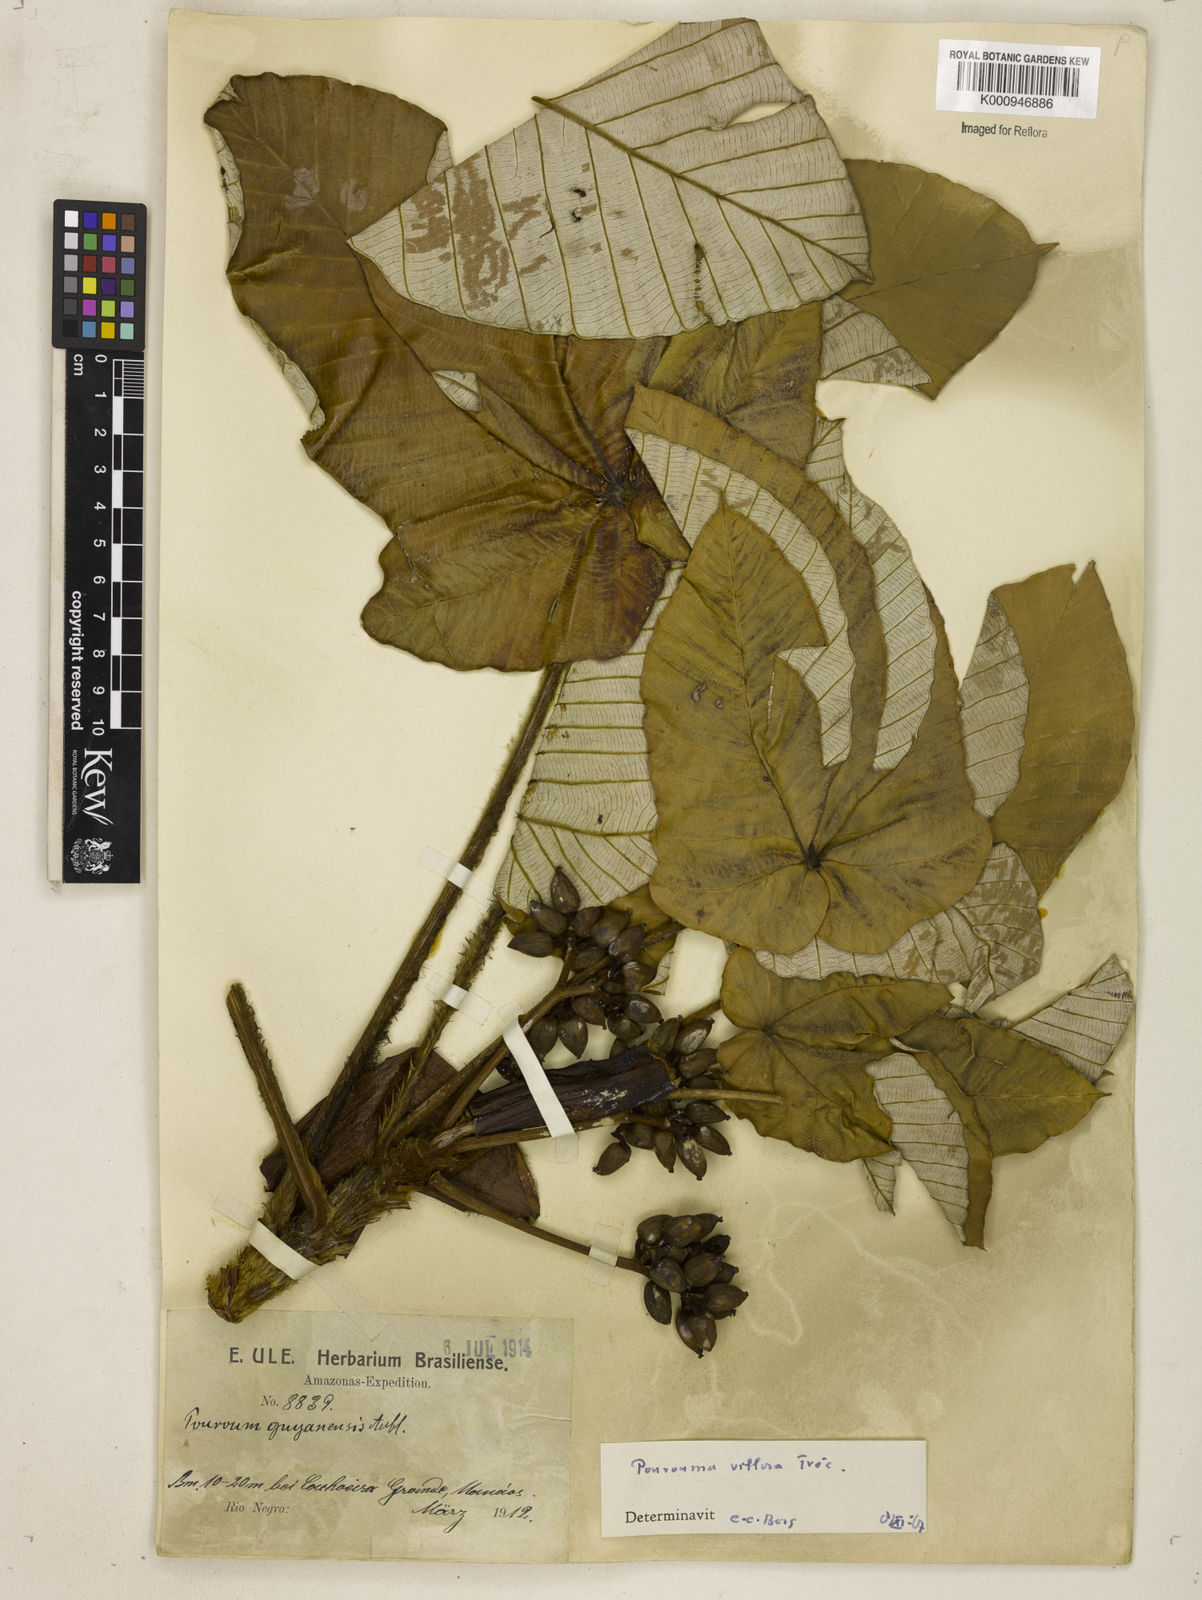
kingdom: Plantae
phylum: Tracheophyta
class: Magnoliopsida
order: Rosales
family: Urticaceae
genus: Pourouma
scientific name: Pourouma
